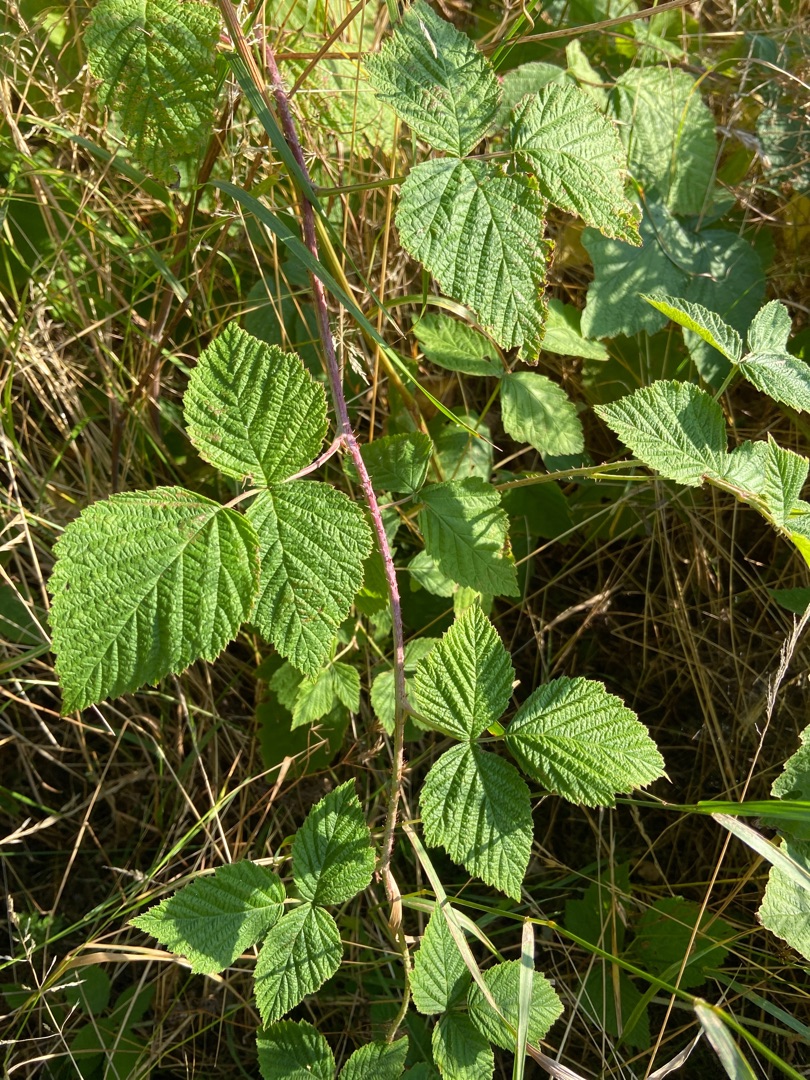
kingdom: Plantae
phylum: Tracheophyta
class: Magnoliopsida
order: Rosales
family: Rosaceae
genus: Rubus
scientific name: Rubus caesius
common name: Korbær
